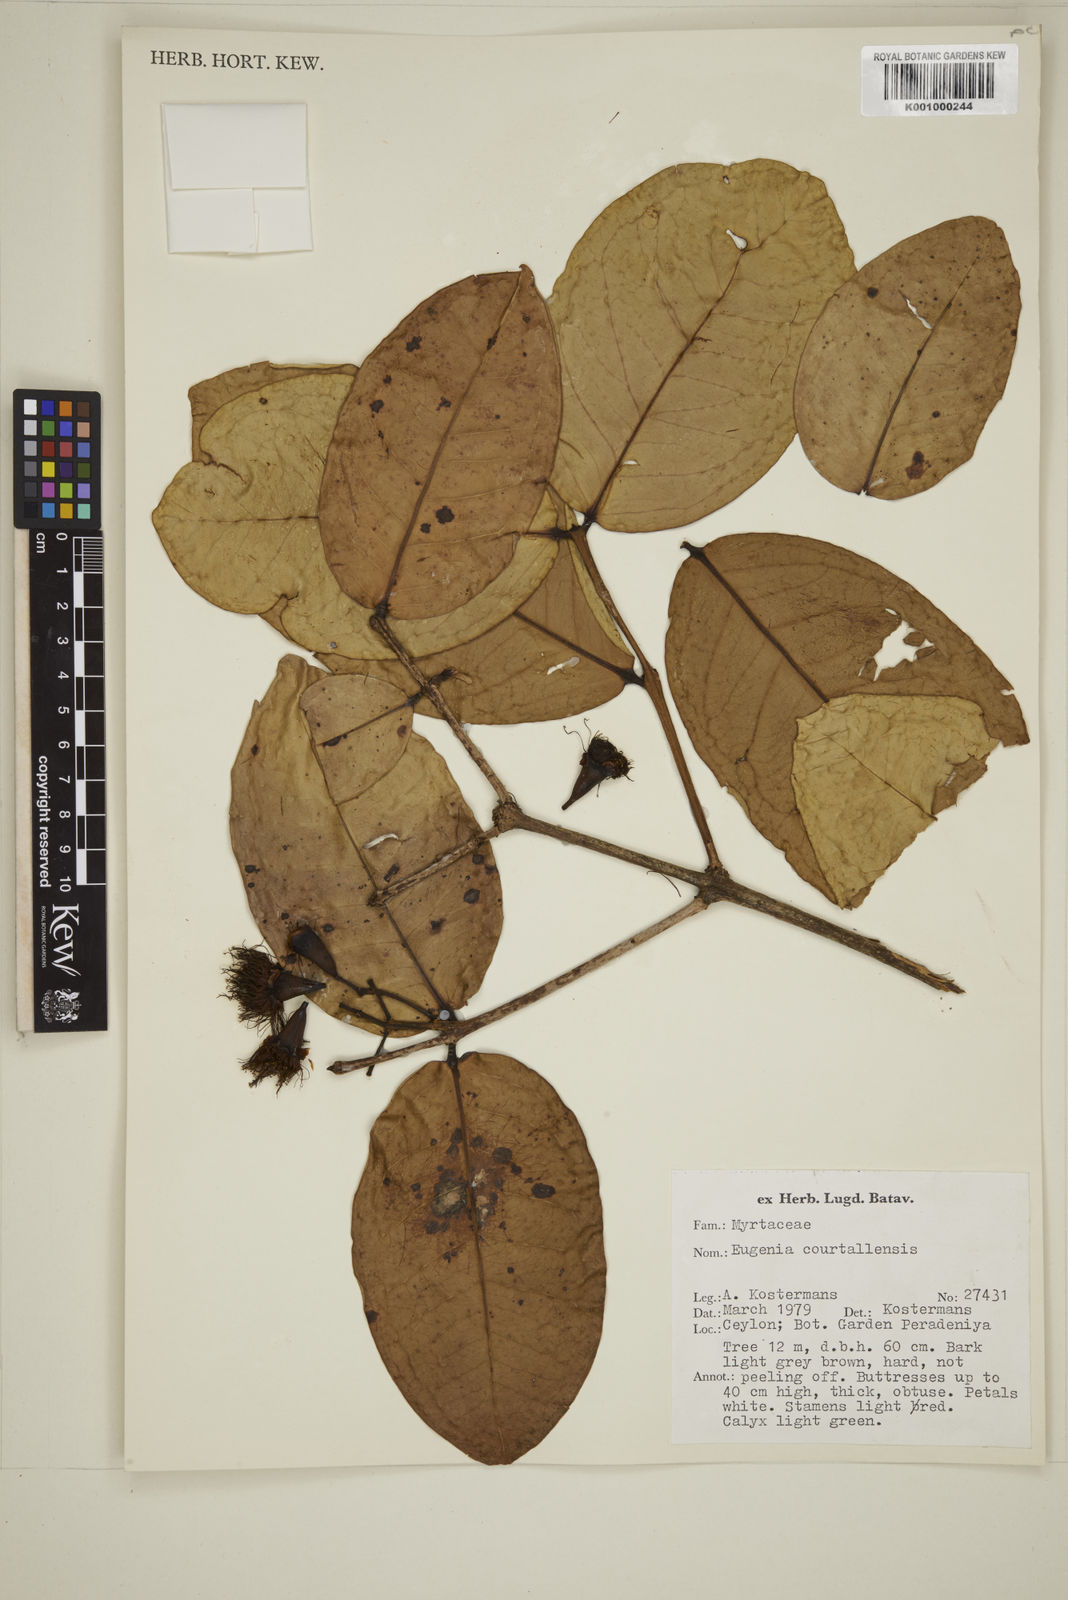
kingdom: Plantae
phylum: Tracheophyta
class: Magnoliopsida
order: Myrtales
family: Myrtaceae
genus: Eugenia
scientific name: Eugenia
